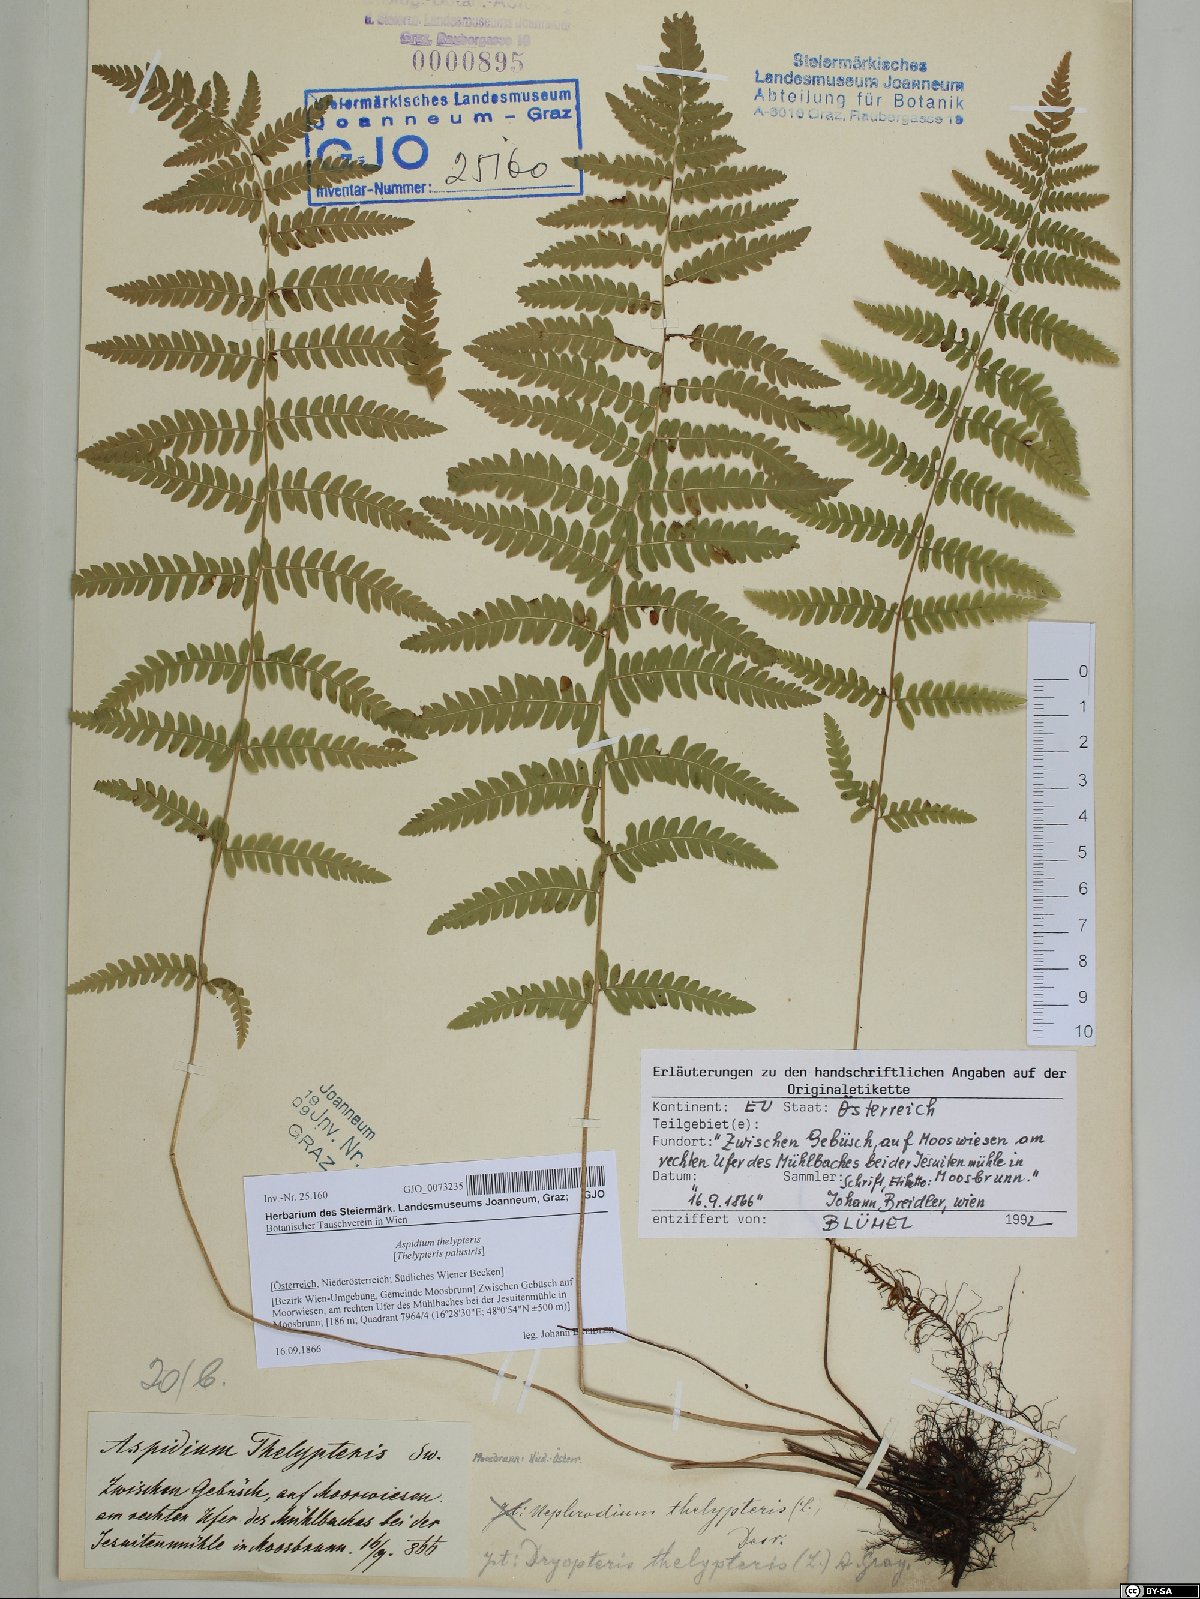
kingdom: Plantae
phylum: Tracheophyta
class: Polypodiopsida
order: Polypodiales
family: Thelypteridaceae
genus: Thelypteris
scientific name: Thelypteris palustris
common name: Marsh fern
